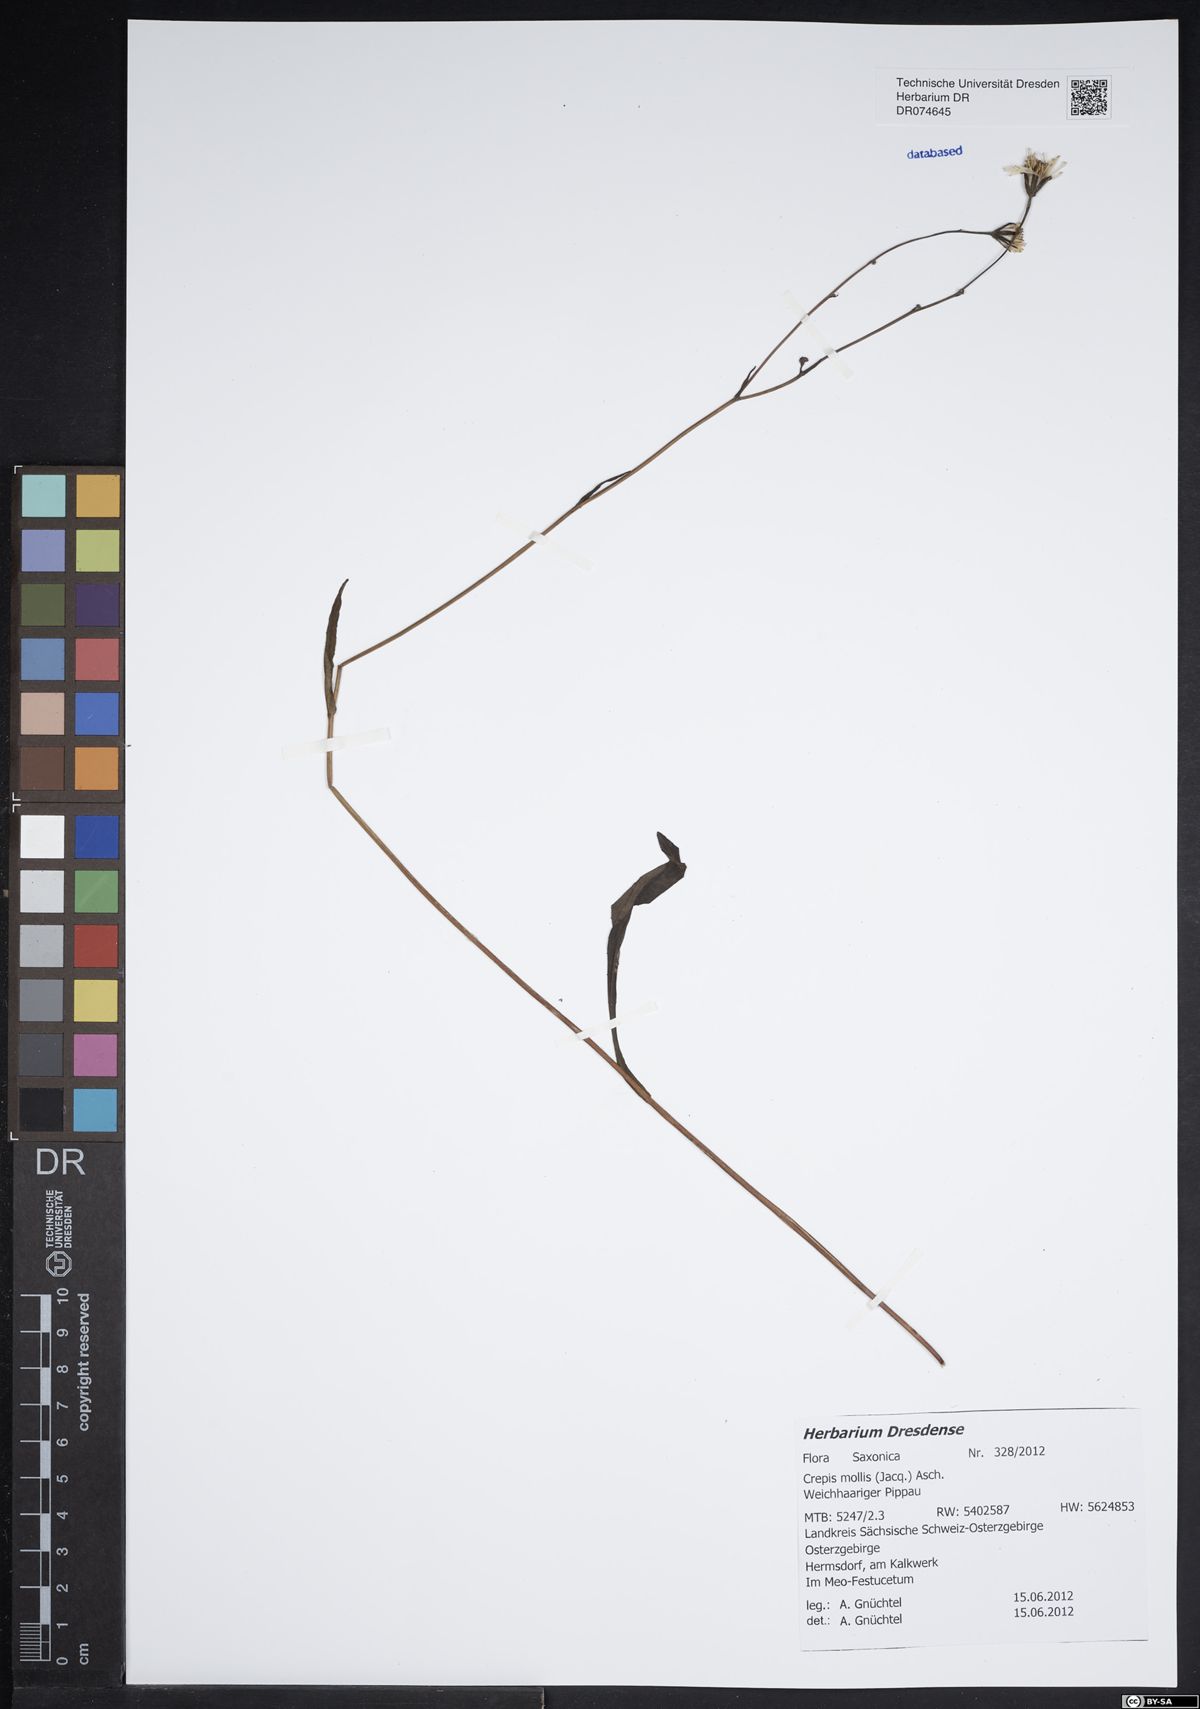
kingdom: Plantae
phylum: Tracheophyta
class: Magnoliopsida
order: Asterales
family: Asteraceae
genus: Crepis
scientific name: Crepis biennis
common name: Rough hawk's-beard
